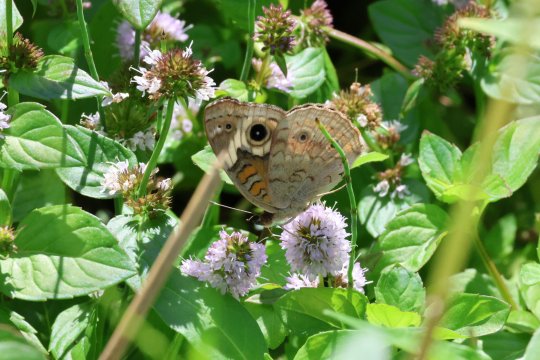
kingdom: Animalia
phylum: Arthropoda
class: Insecta
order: Lepidoptera
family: Nymphalidae
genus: Junonia
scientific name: Junonia coenia
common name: Common Buckeye
